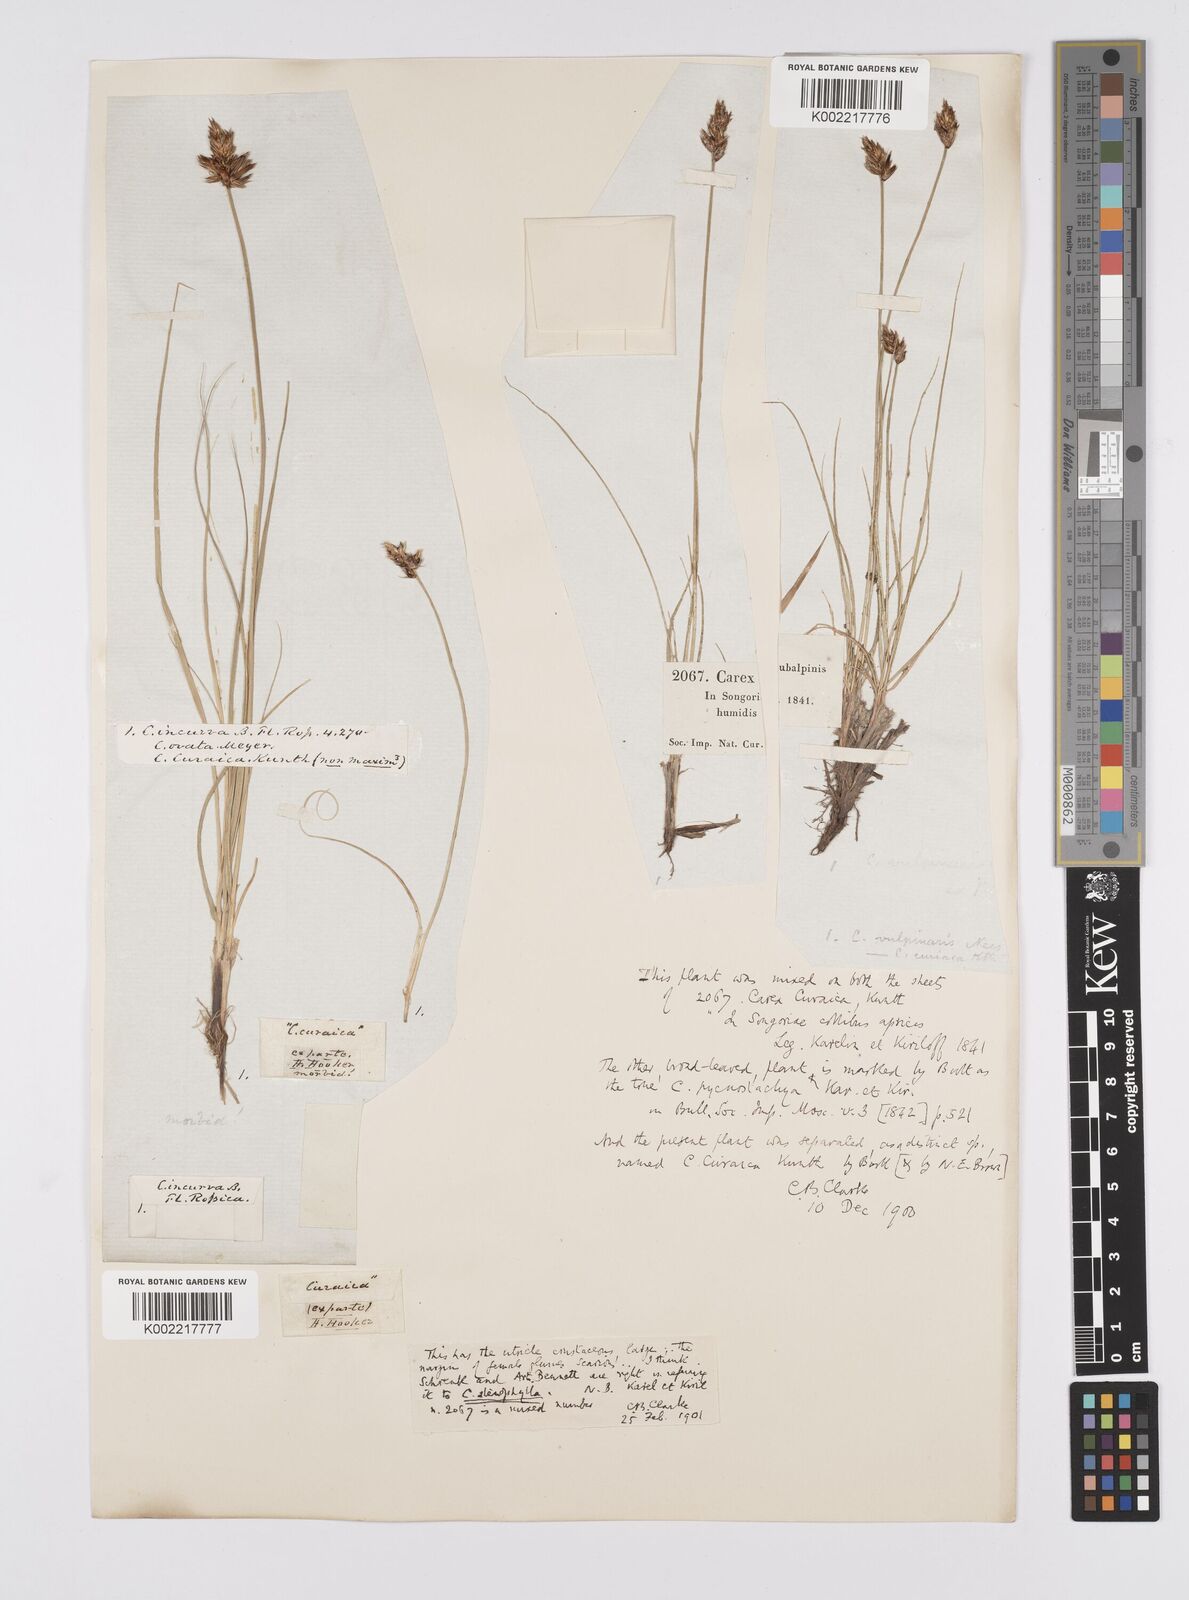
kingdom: Plantae
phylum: Tracheophyta
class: Liliopsida
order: Poales
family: Cyperaceae
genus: Carex
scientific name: Carex stenophylla
